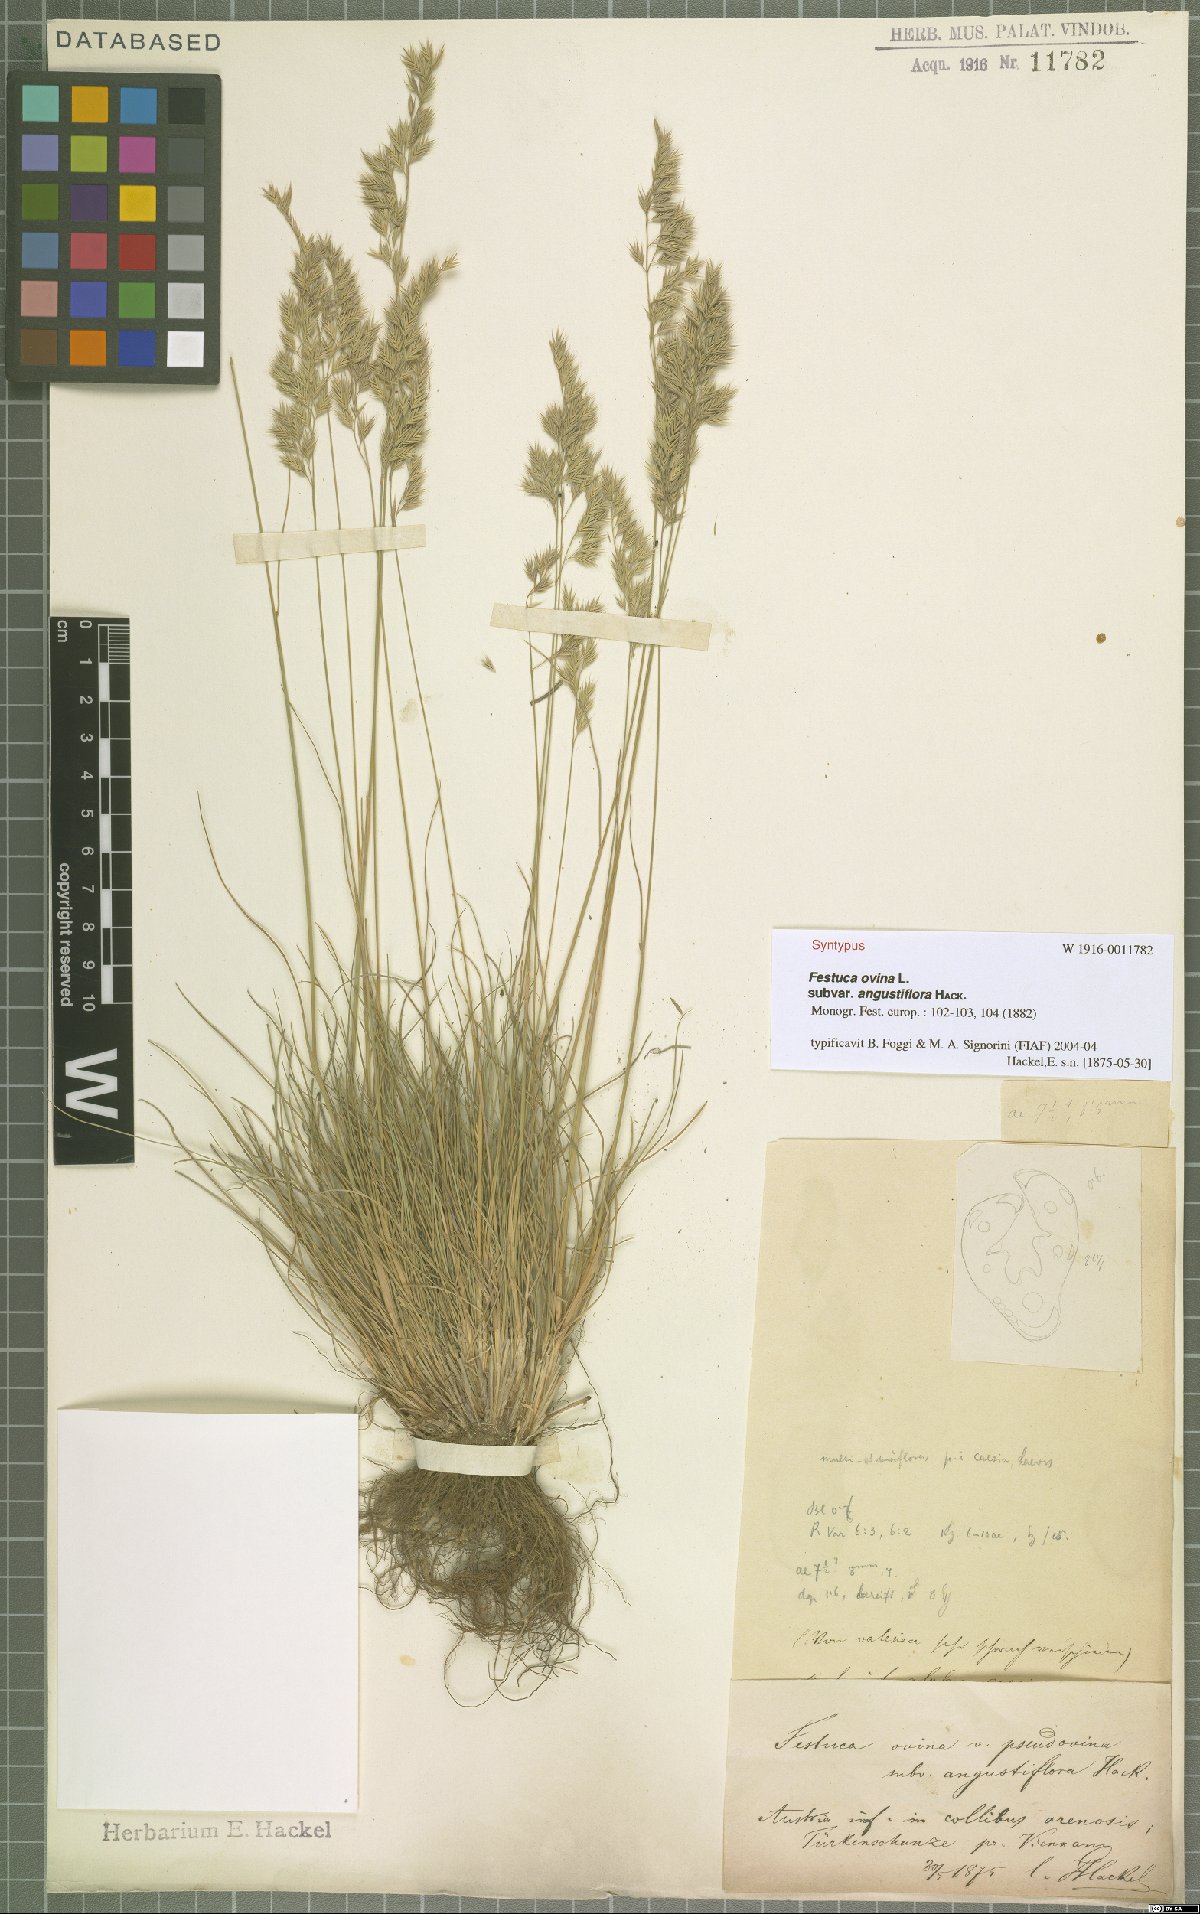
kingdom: Plantae
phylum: Tracheophyta
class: Liliopsida
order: Poales
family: Poaceae
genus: Festuca
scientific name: Festuca ovina
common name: Sheep fescue
